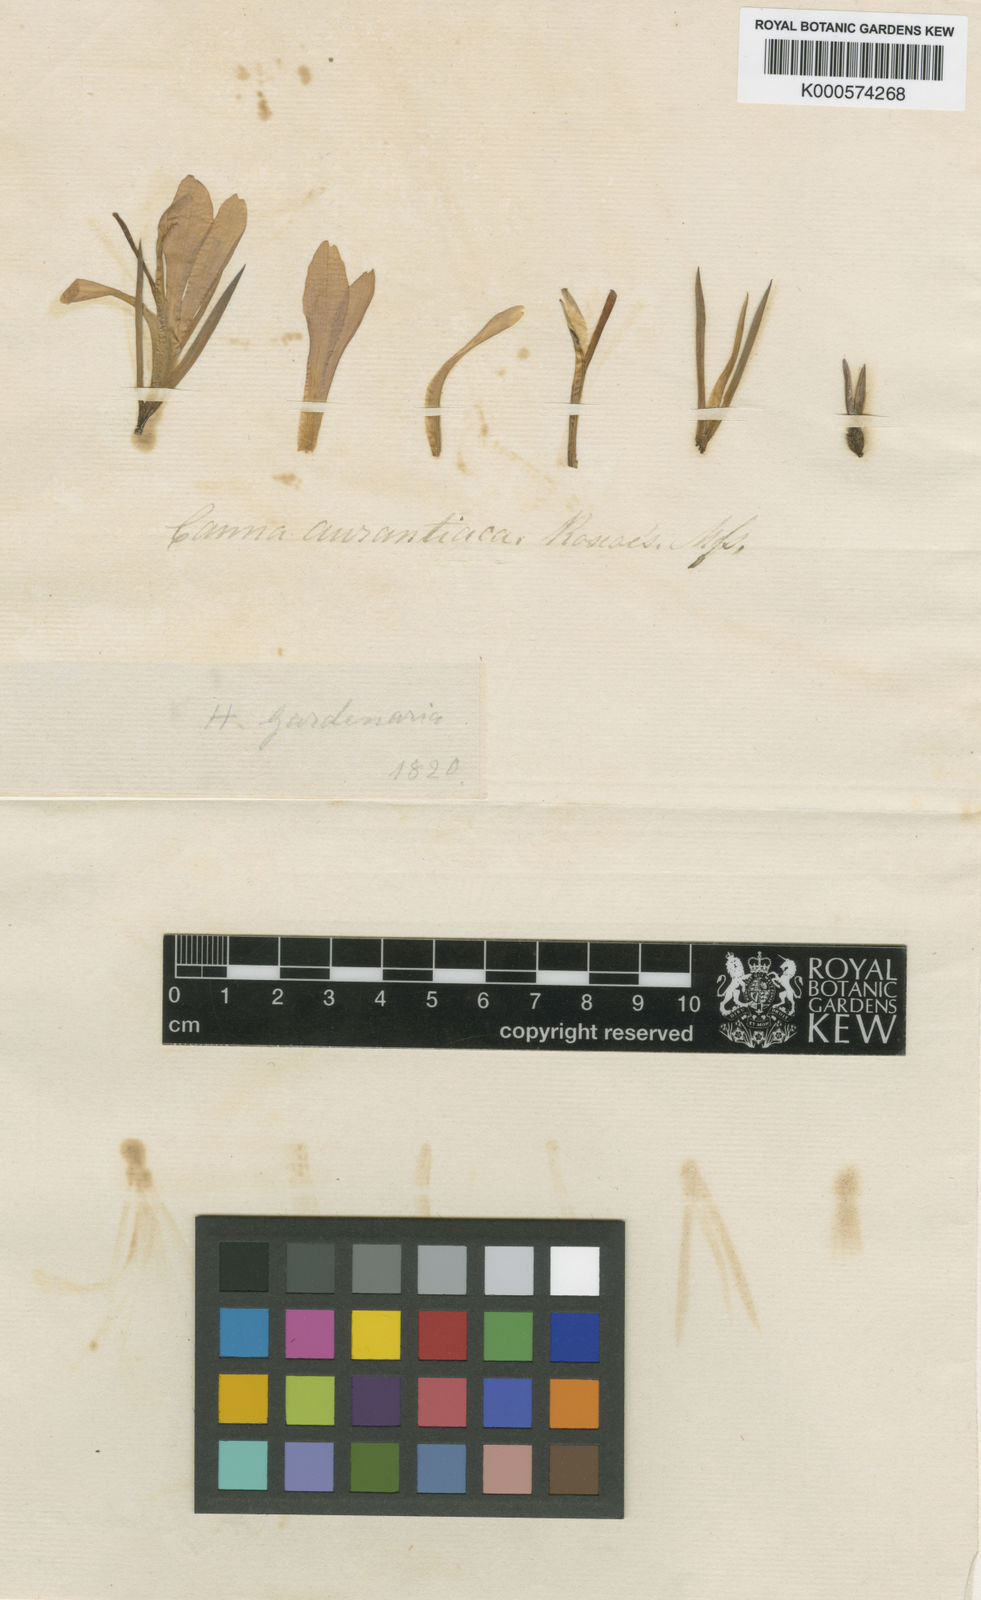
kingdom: Plantae
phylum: Tracheophyta
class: Liliopsida
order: Zingiberales
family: Cannaceae
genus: Canna
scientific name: Canna indica
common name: Indian shot
